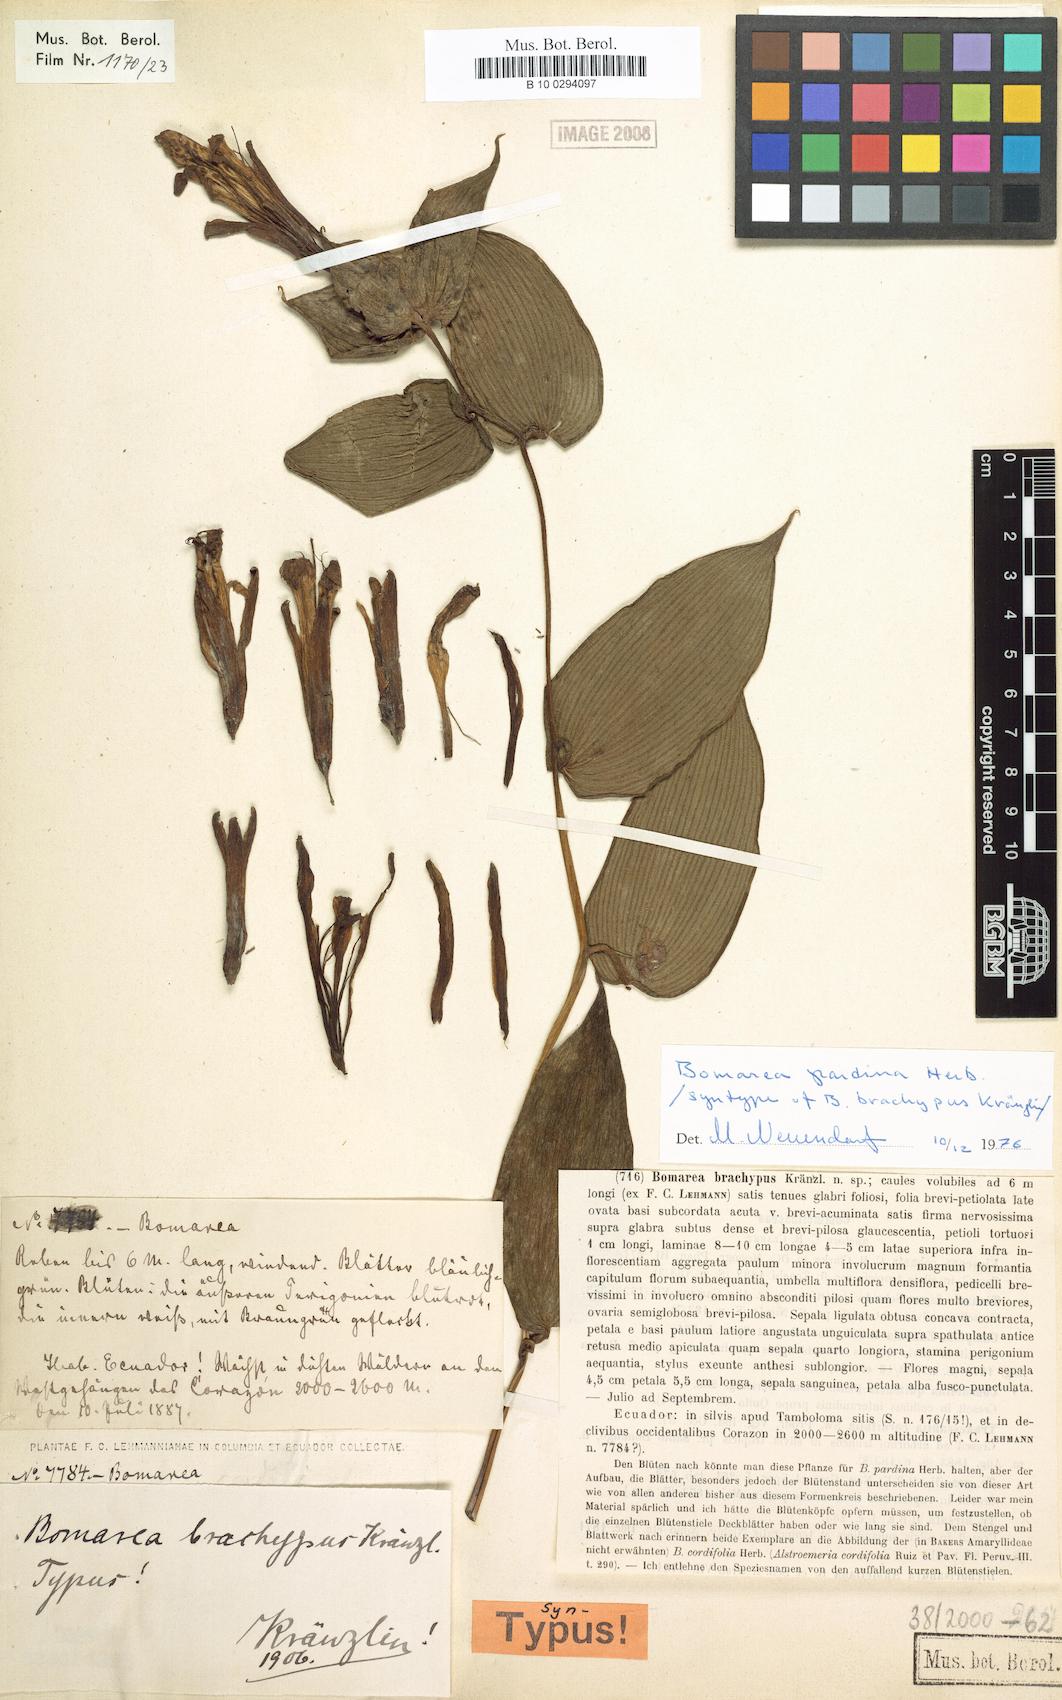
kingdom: Plantae
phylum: Tracheophyta
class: Liliopsida
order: Liliales
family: Alstroemeriaceae
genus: Bomarea
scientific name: Bomarea pardina
